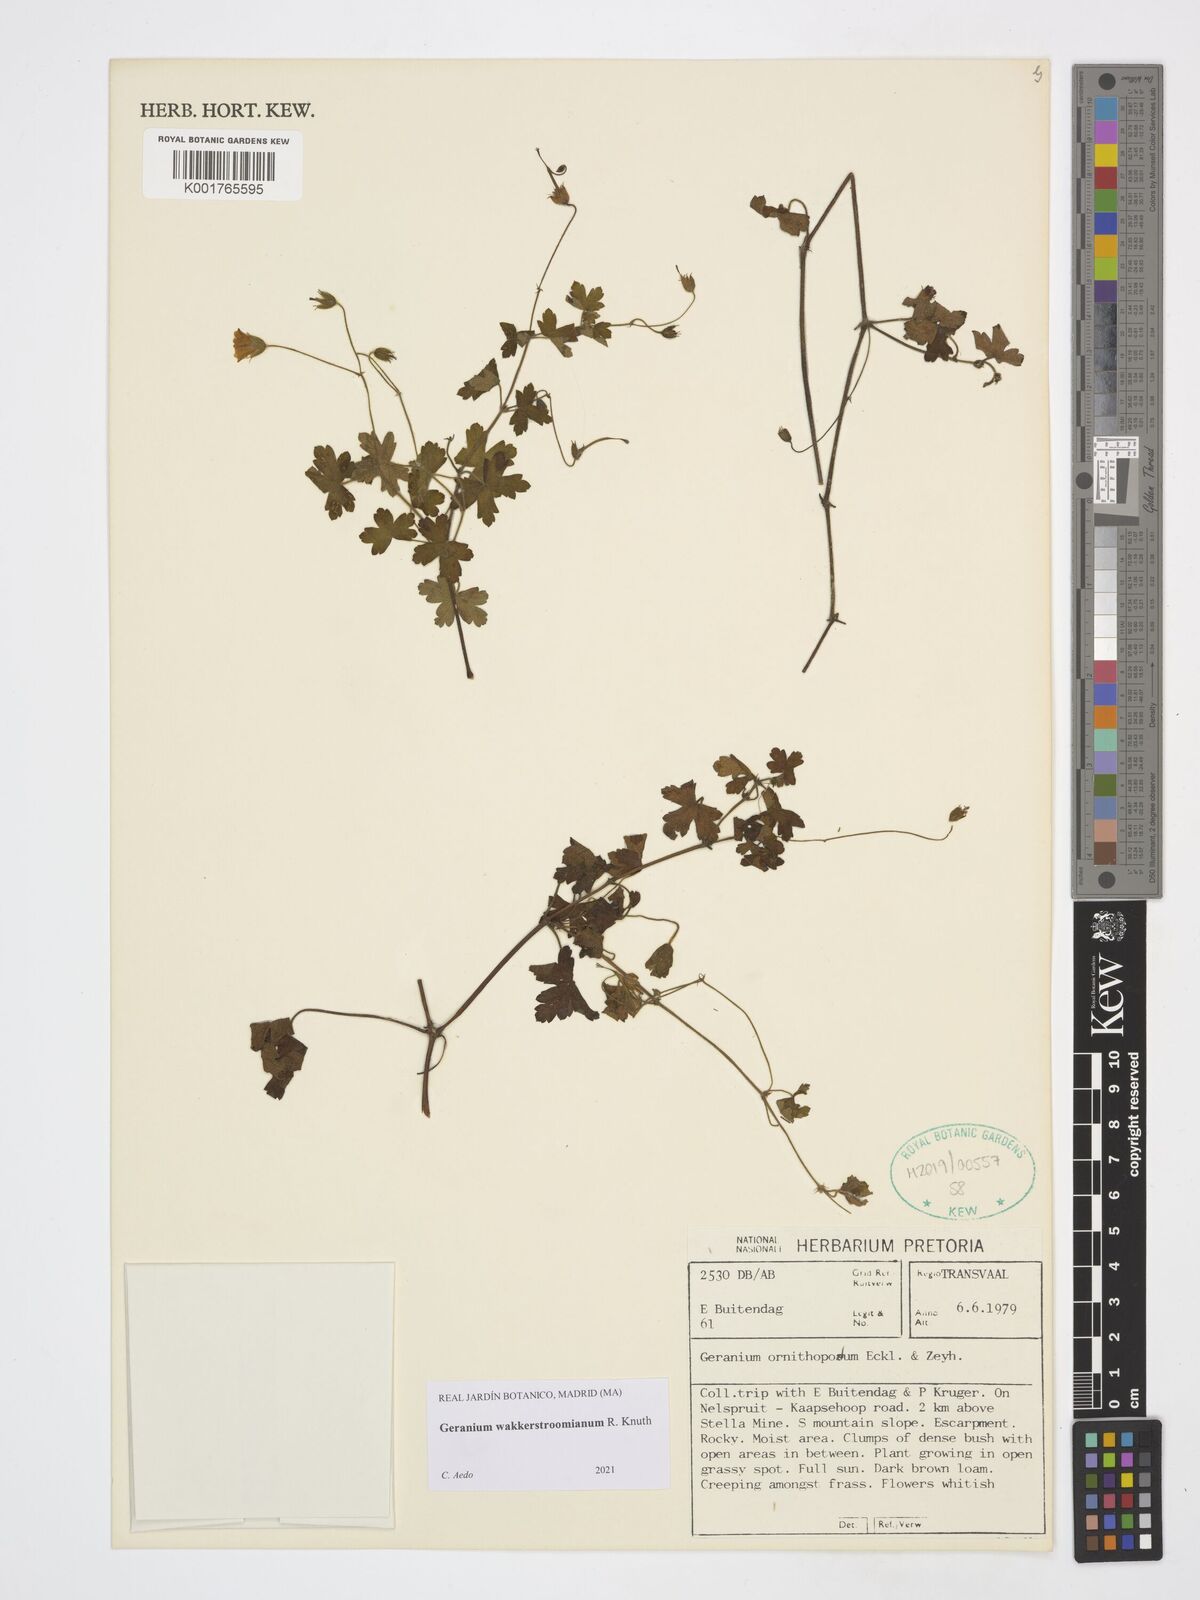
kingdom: Plantae
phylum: Tracheophyta
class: Magnoliopsida
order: Geraniales
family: Geraniaceae
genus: Geranium
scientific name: Geranium wakkerstroomianum
